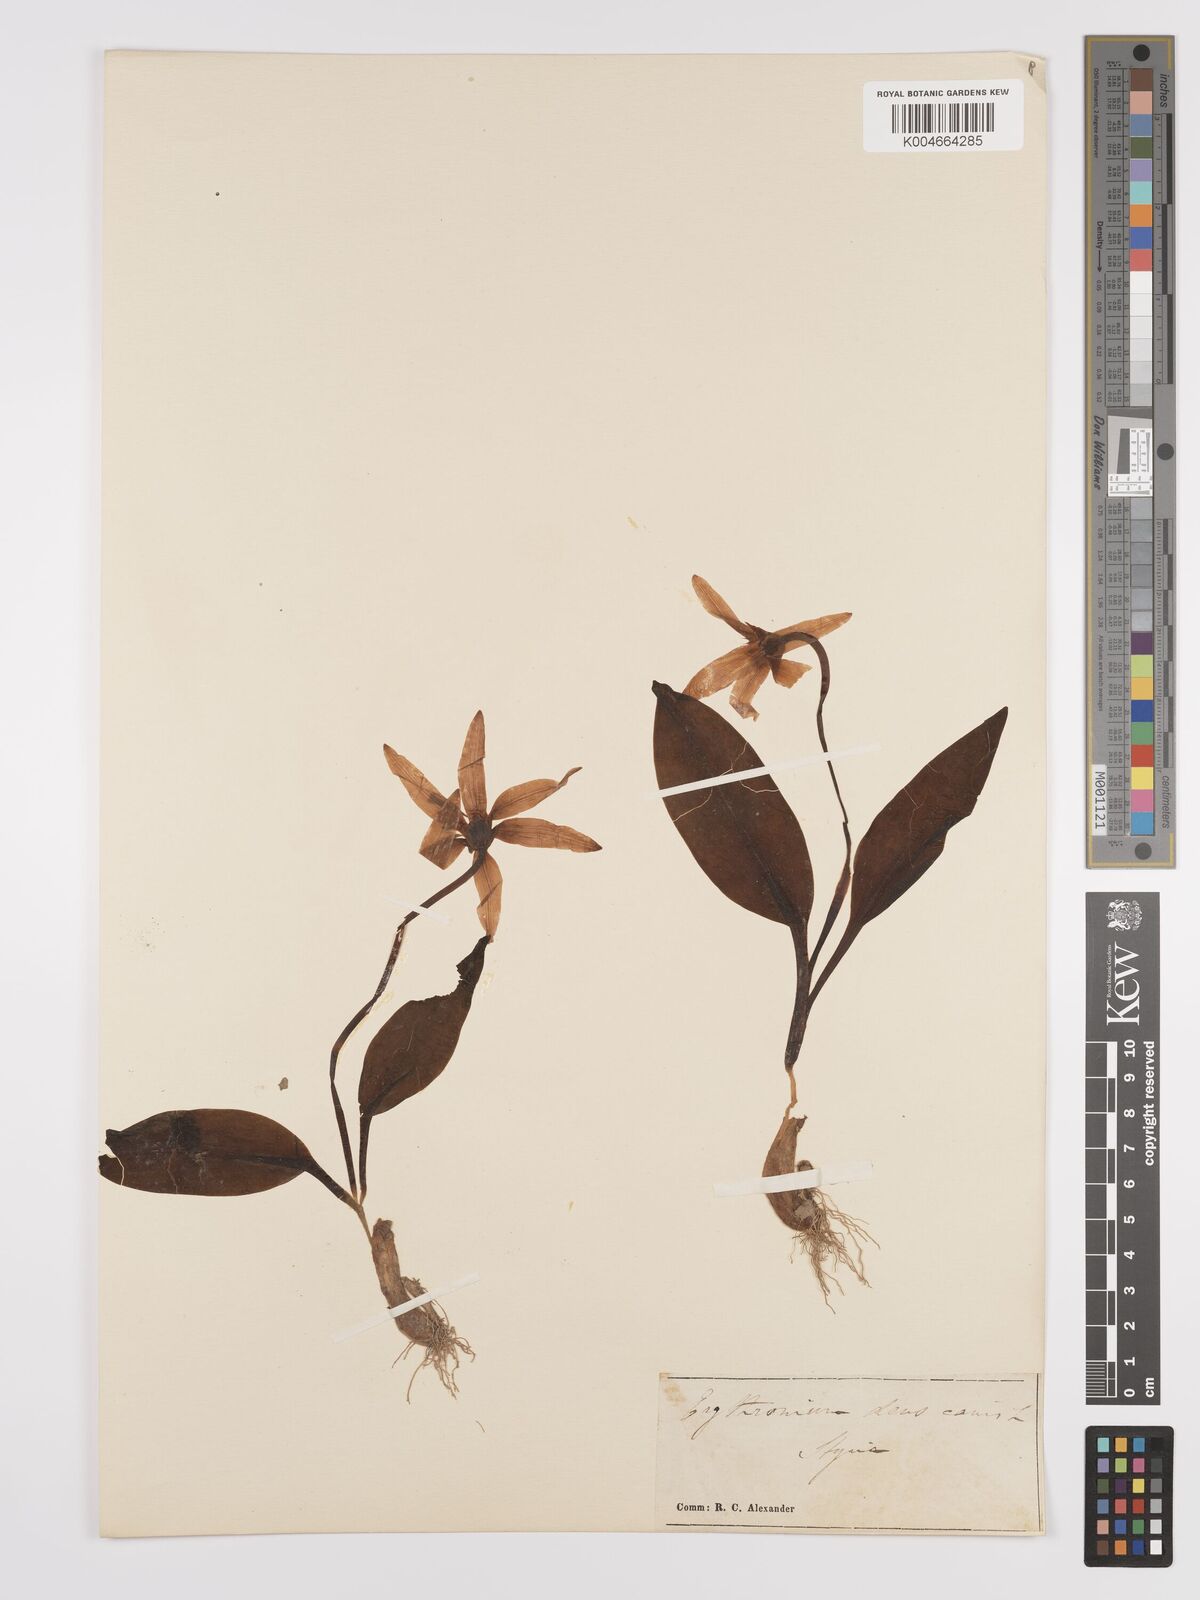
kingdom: Plantae
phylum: Tracheophyta
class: Liliopsida
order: Liliales
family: Liliaceae
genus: Erythronium
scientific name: Erythronium dens-canis
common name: Dog's-tooth-violet
